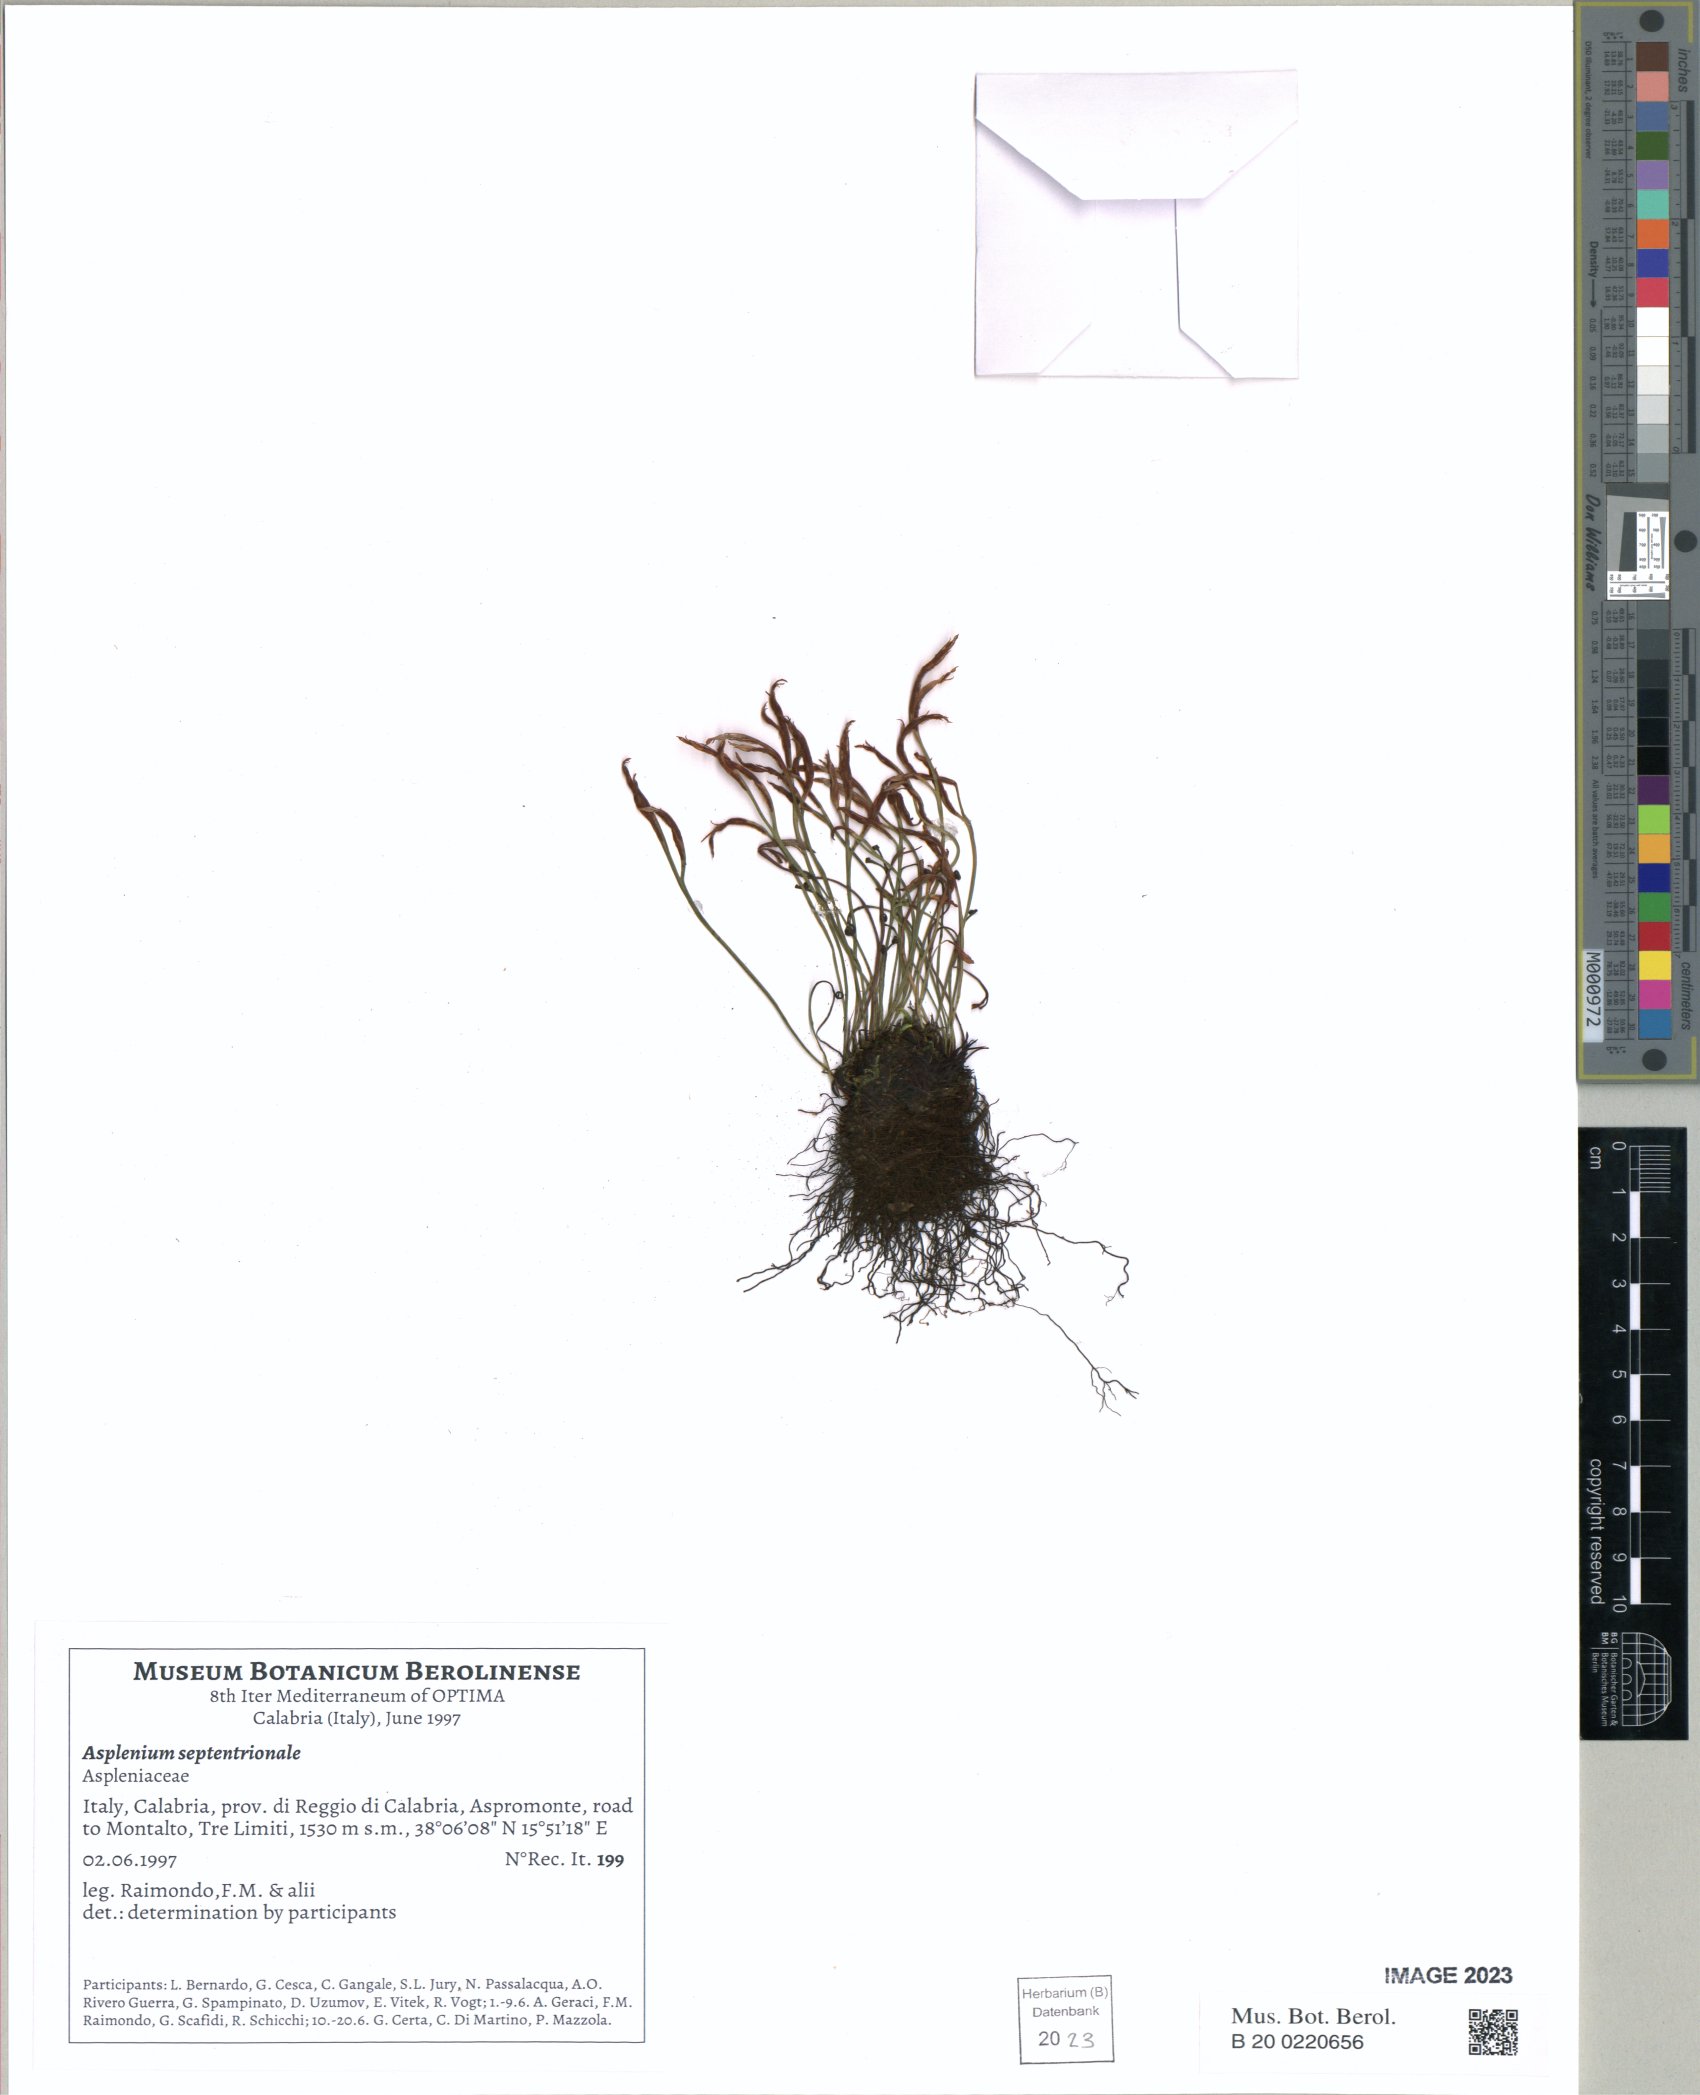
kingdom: Plantae
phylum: Tracheophyta
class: Polypodiopsida
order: Polypodiales
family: Aspleniaceae
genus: Asplenium
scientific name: Asplenium septentrionale
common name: Forked spleenwort
